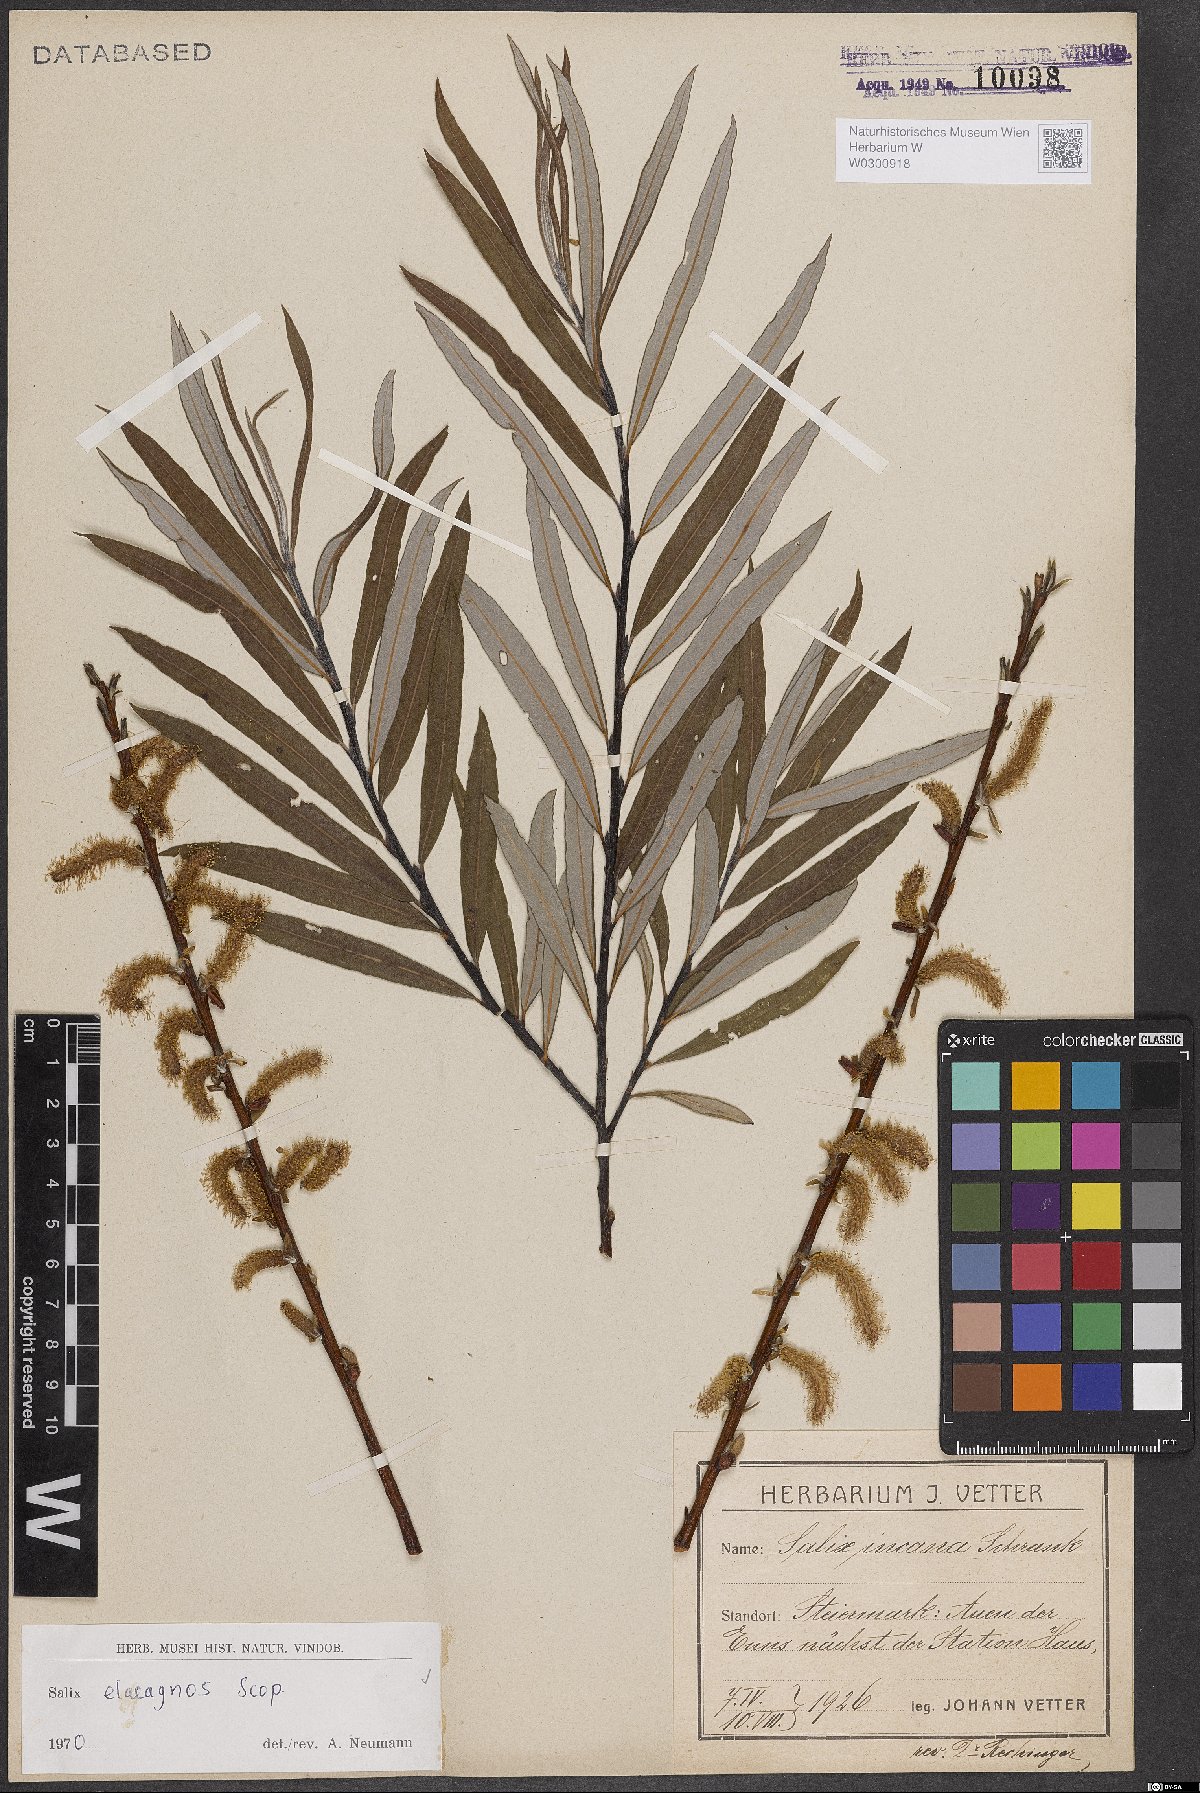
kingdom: Plantae
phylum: Tracheophyta
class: Magnoliopsida
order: Malpighiales
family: Salicaceae
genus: Salix
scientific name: Salix eleagnos
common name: Elaeagnus willow
